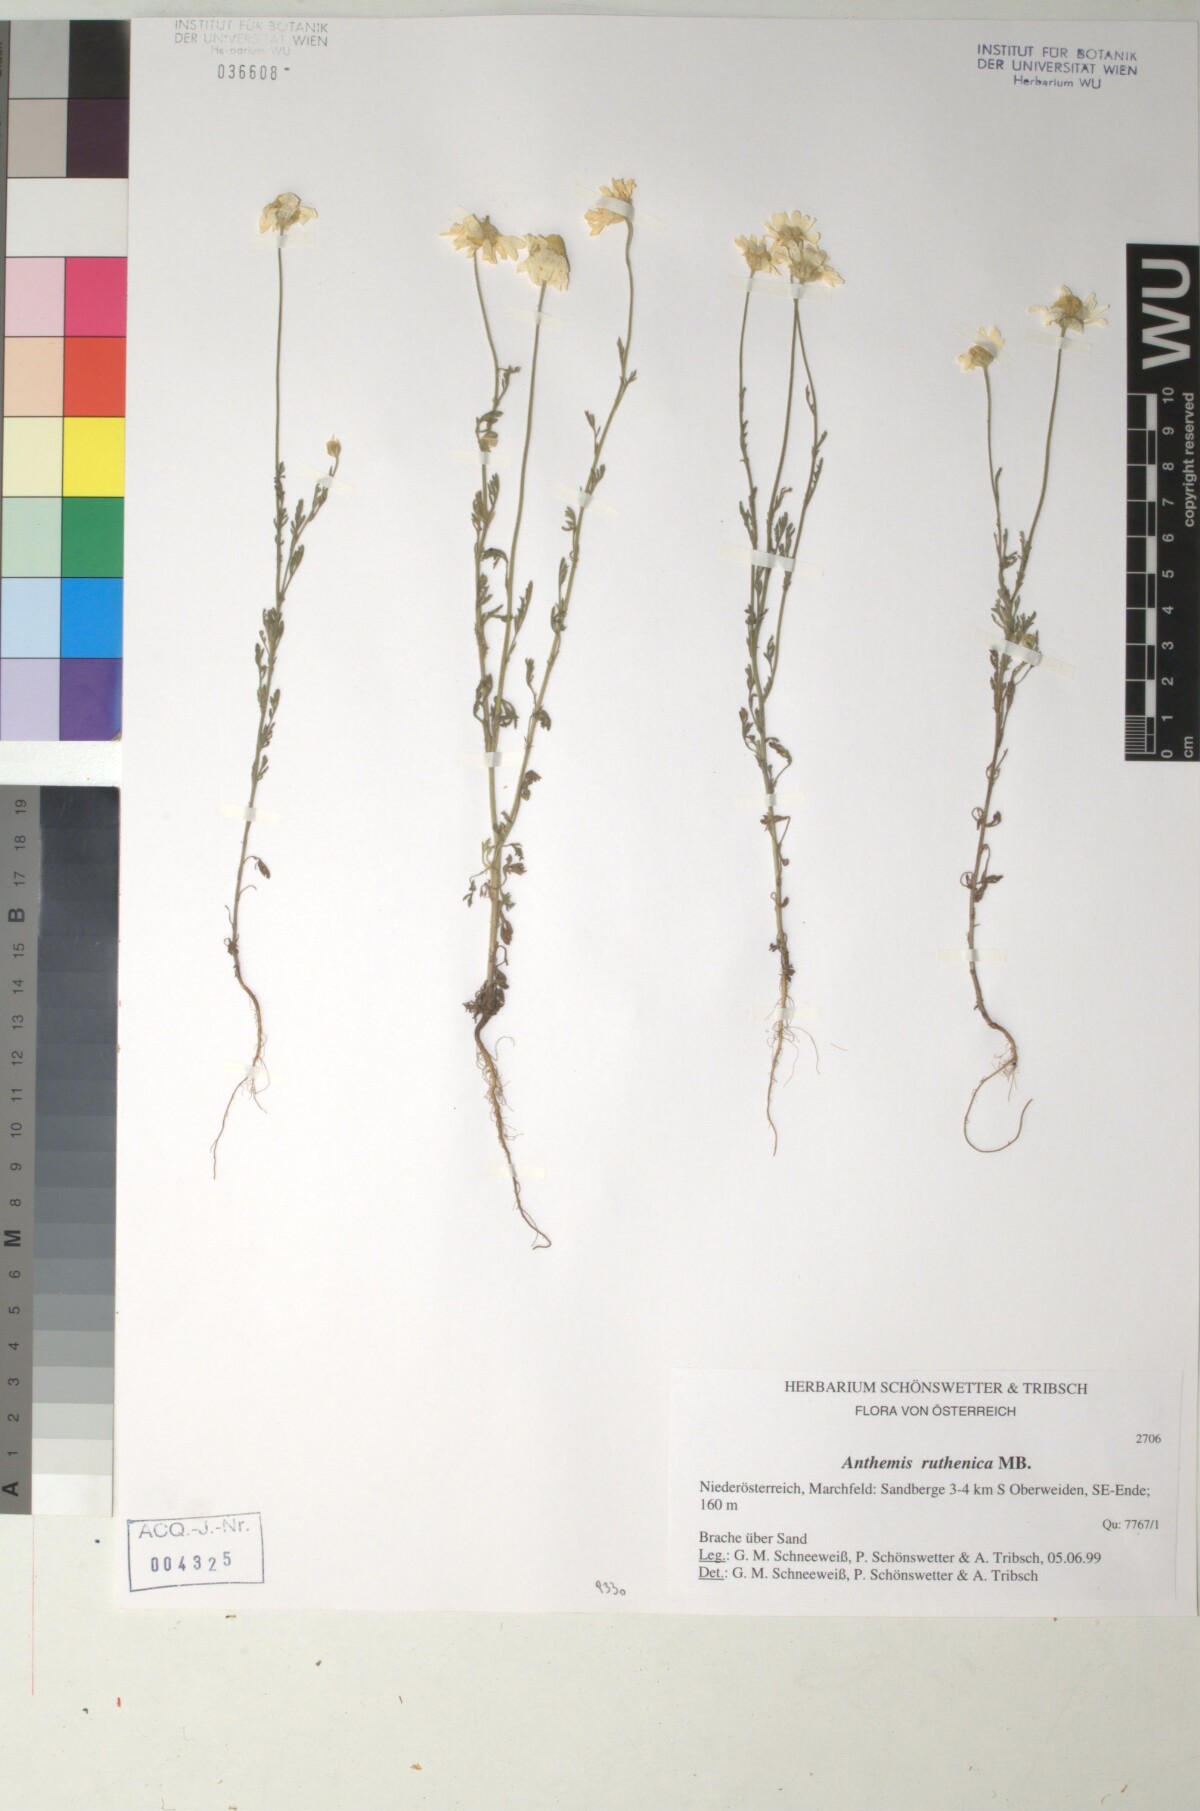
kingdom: Plantae
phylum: Tracheophyta
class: Magnoliopsida
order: Asterales
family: Asteraceae
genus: Anthemis
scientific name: Anthemis ruthenica
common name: Eastern chamomile
